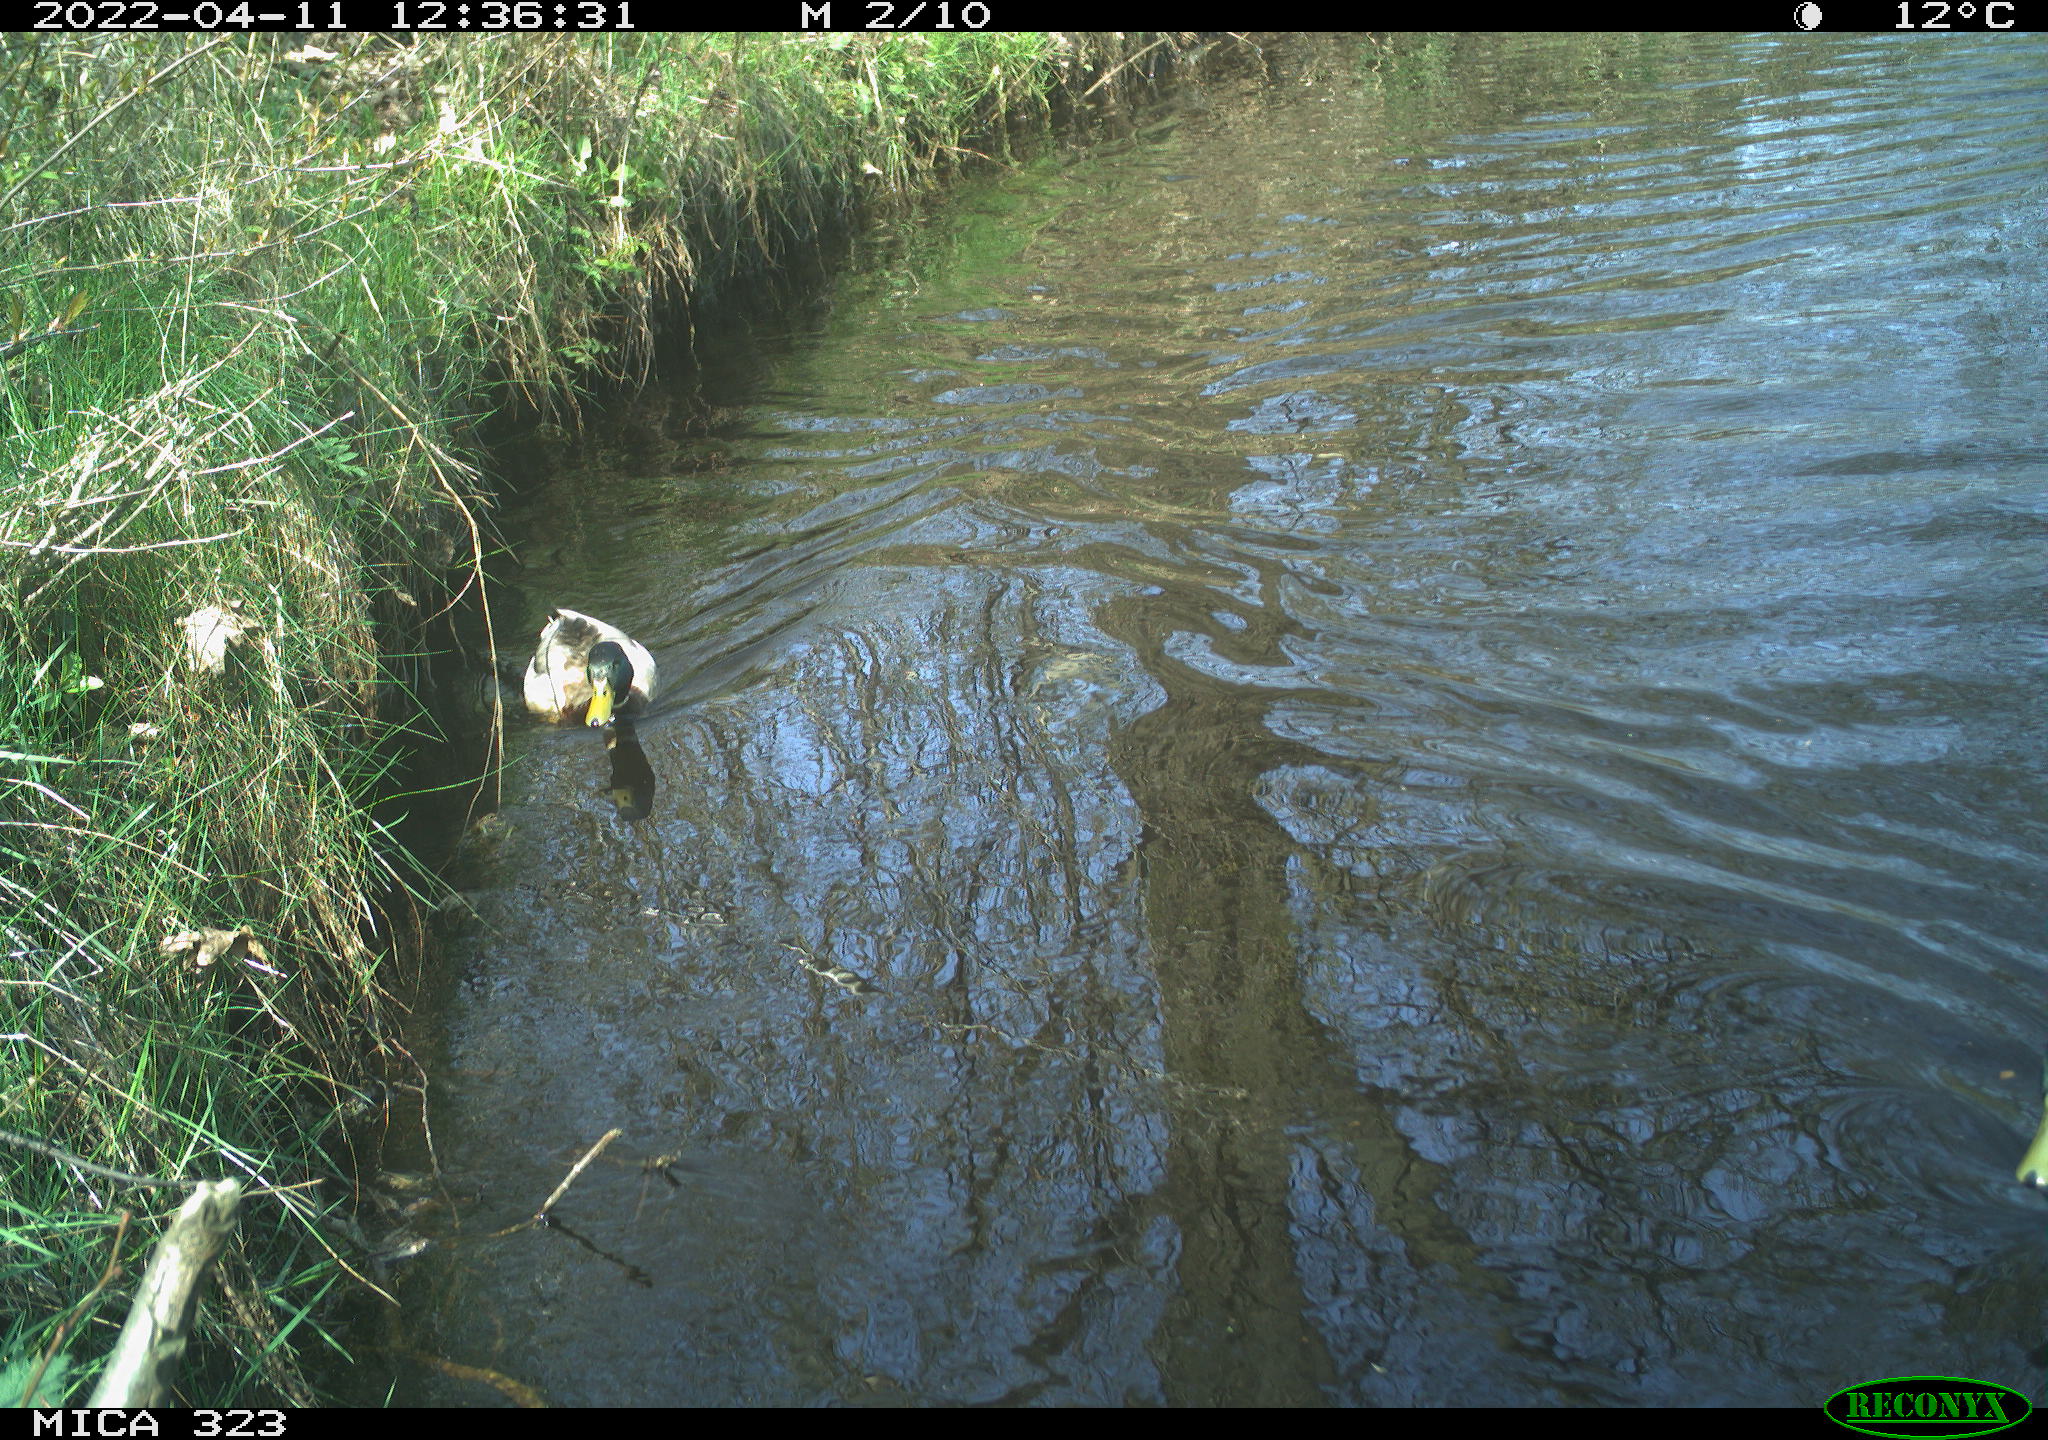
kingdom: Animalia
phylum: Chordata
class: Aves
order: Anseriformes
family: Anatidae
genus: Anas
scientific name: Anas platyrhynchos
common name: Mallard
